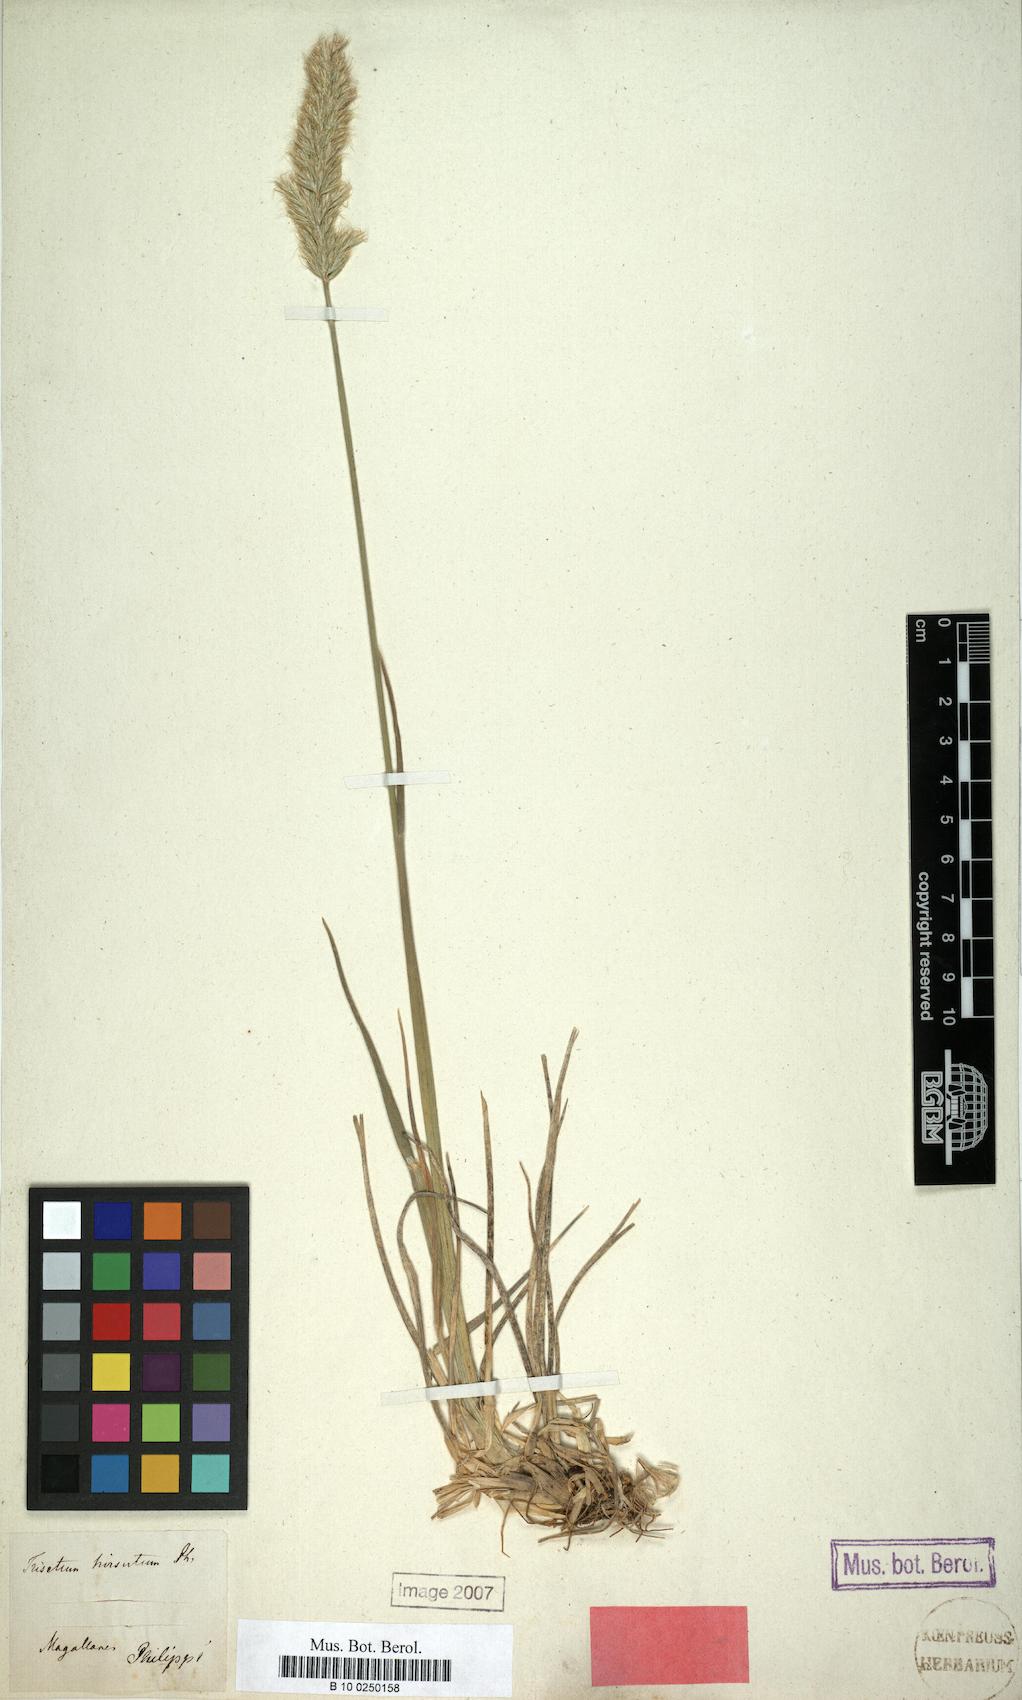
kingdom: Plantae
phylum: Tracheophyta
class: Liliopsida
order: Poales
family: Poaceae
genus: Koeleria
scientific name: Koeleria spicata
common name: Mountain trisetum
